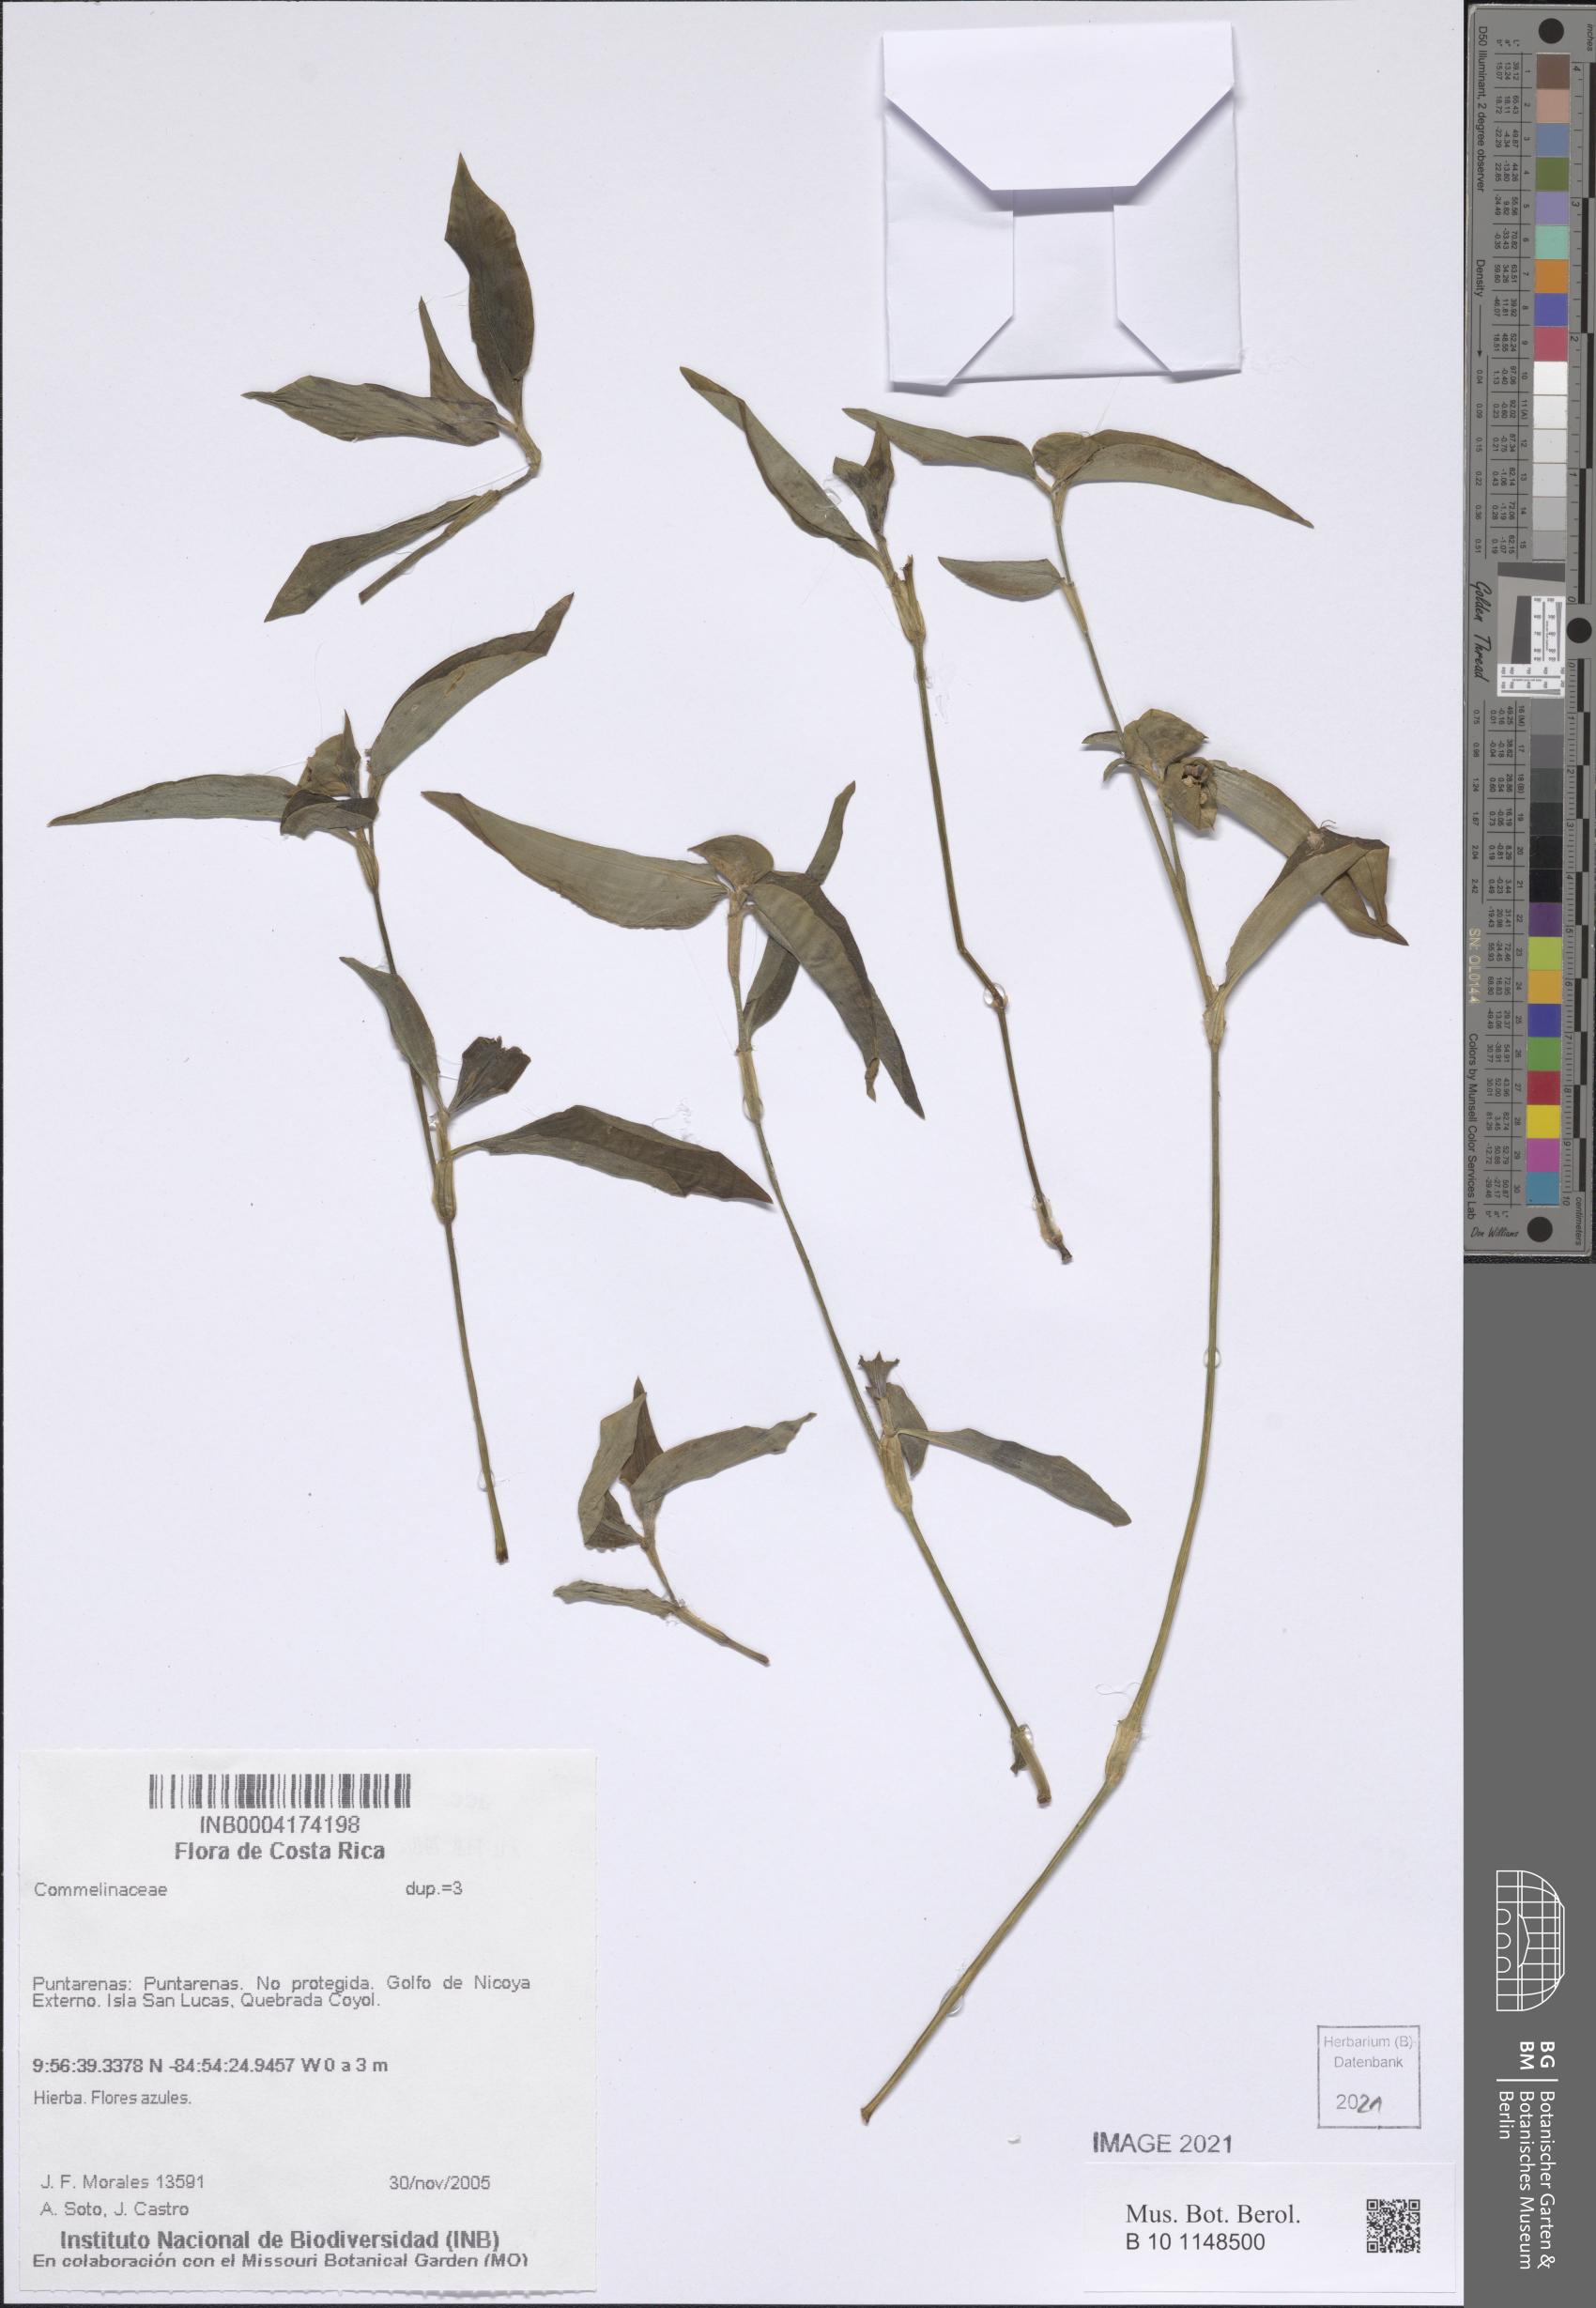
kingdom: Plantae
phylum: Tracheophyta
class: Liliopsida
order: Commelinales
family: Commelinaceae
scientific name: Commelinaceae
